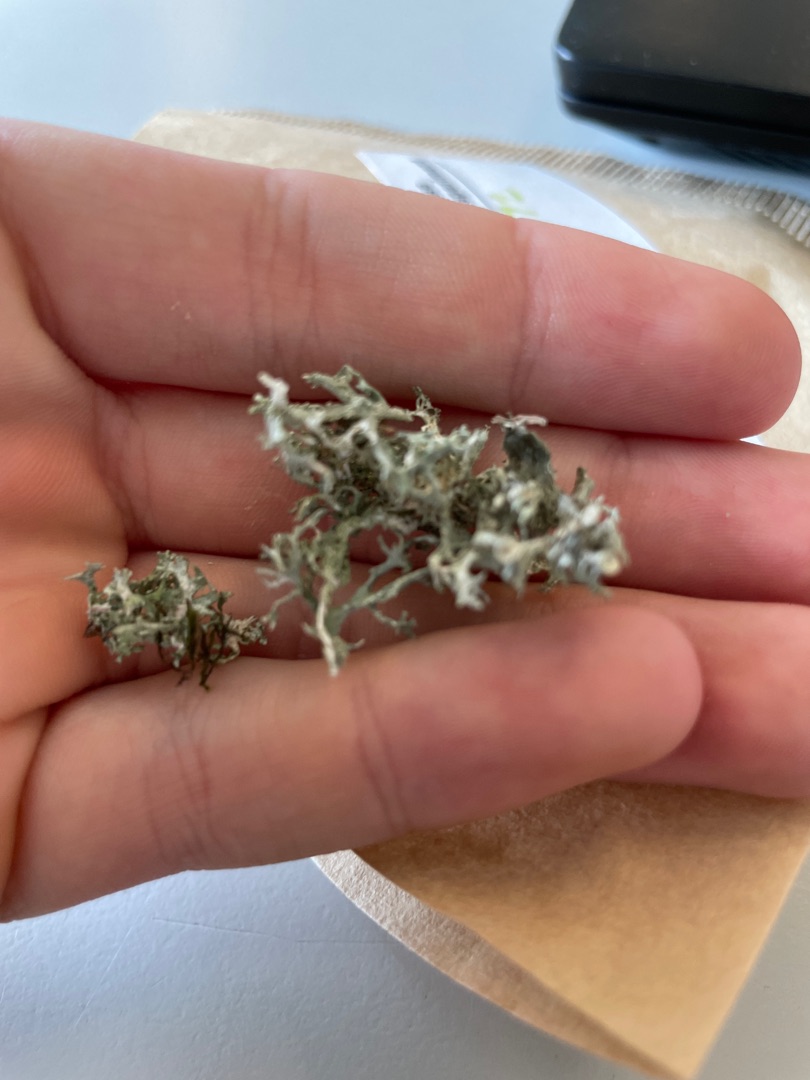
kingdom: Fungi
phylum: Ascomycota
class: Lecanoromycetes
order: Lecanorales
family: Parmeliaceae
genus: Evernia
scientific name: Evernia prunastri
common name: Almindelig slåenlav
